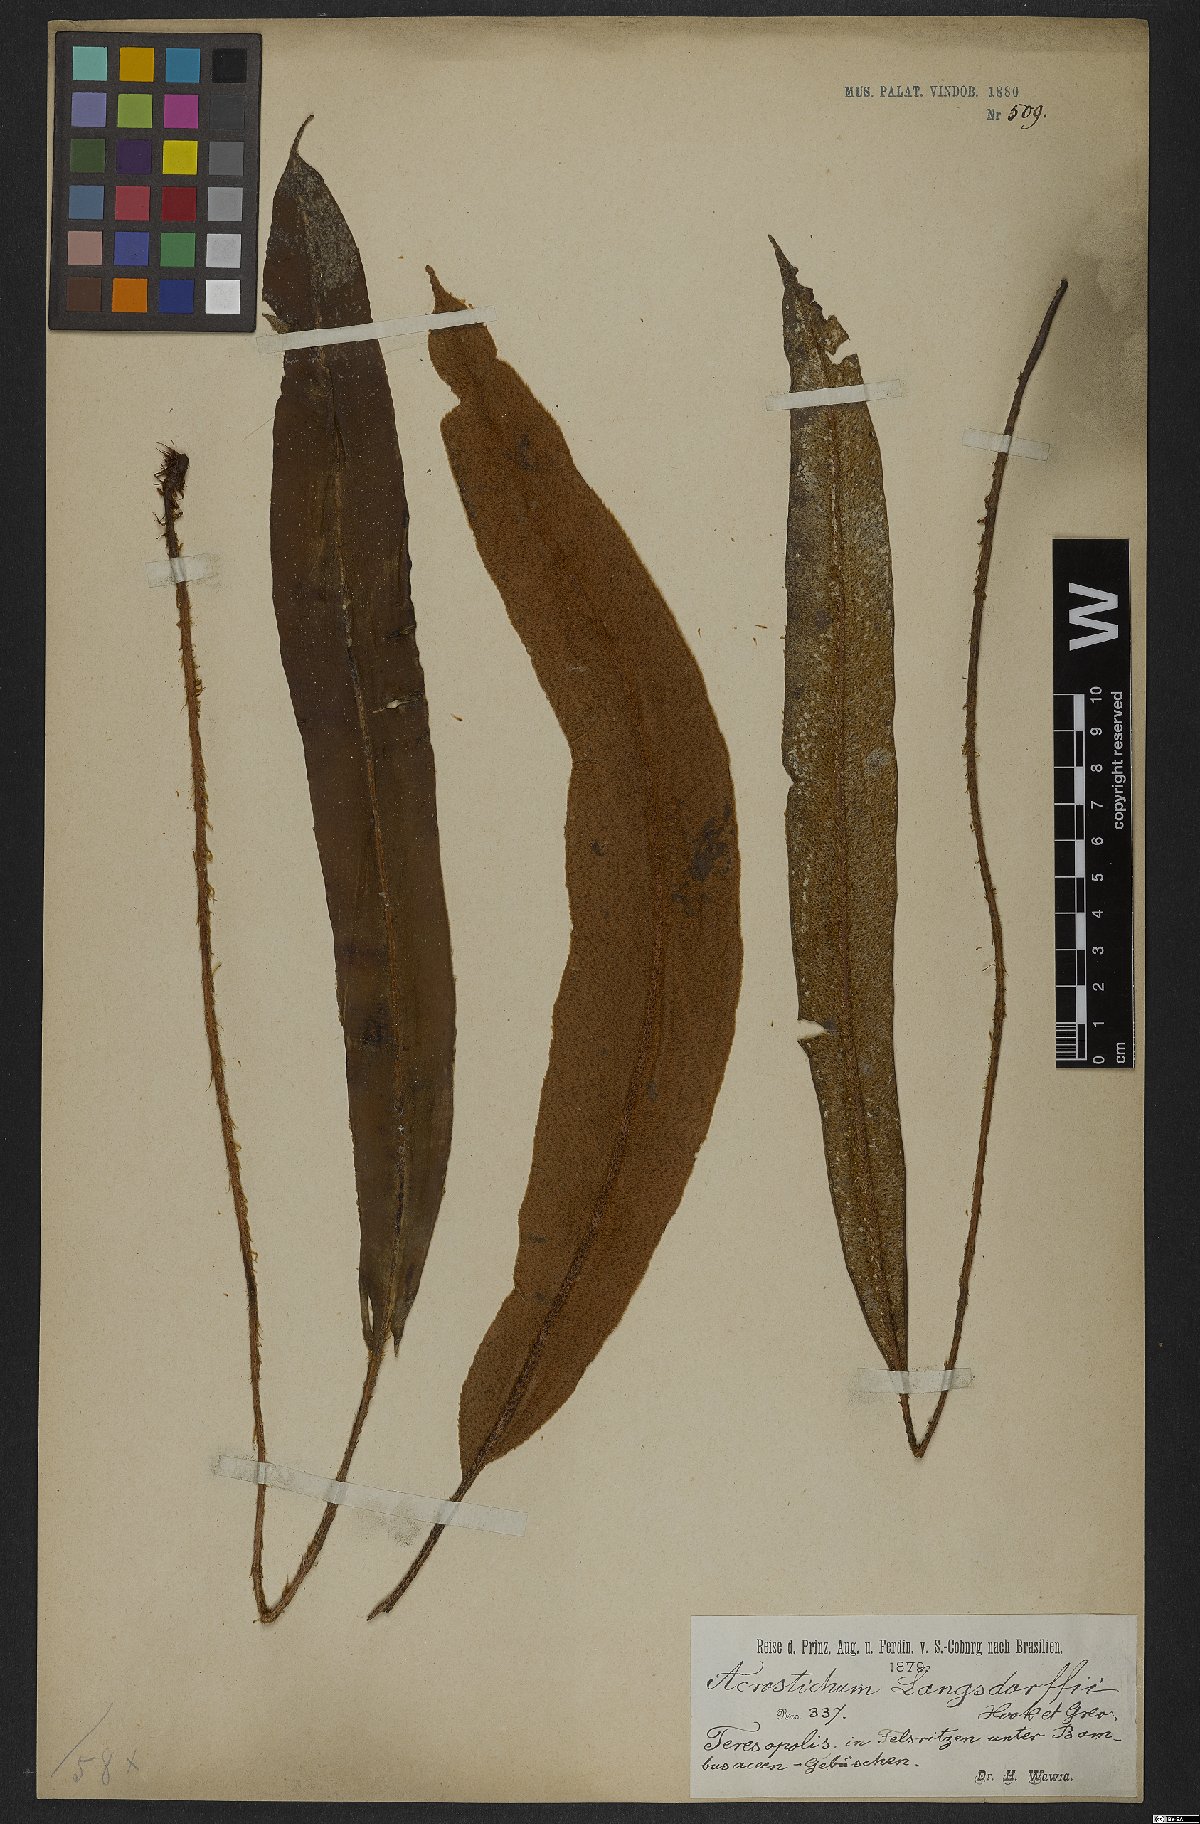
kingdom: Plantae
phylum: Tracheophyta
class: Polypodiopsida
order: Polypodiales
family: Dryopteridaceae
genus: Elaphoglossum
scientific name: Elaphoglossum langsdorffii
